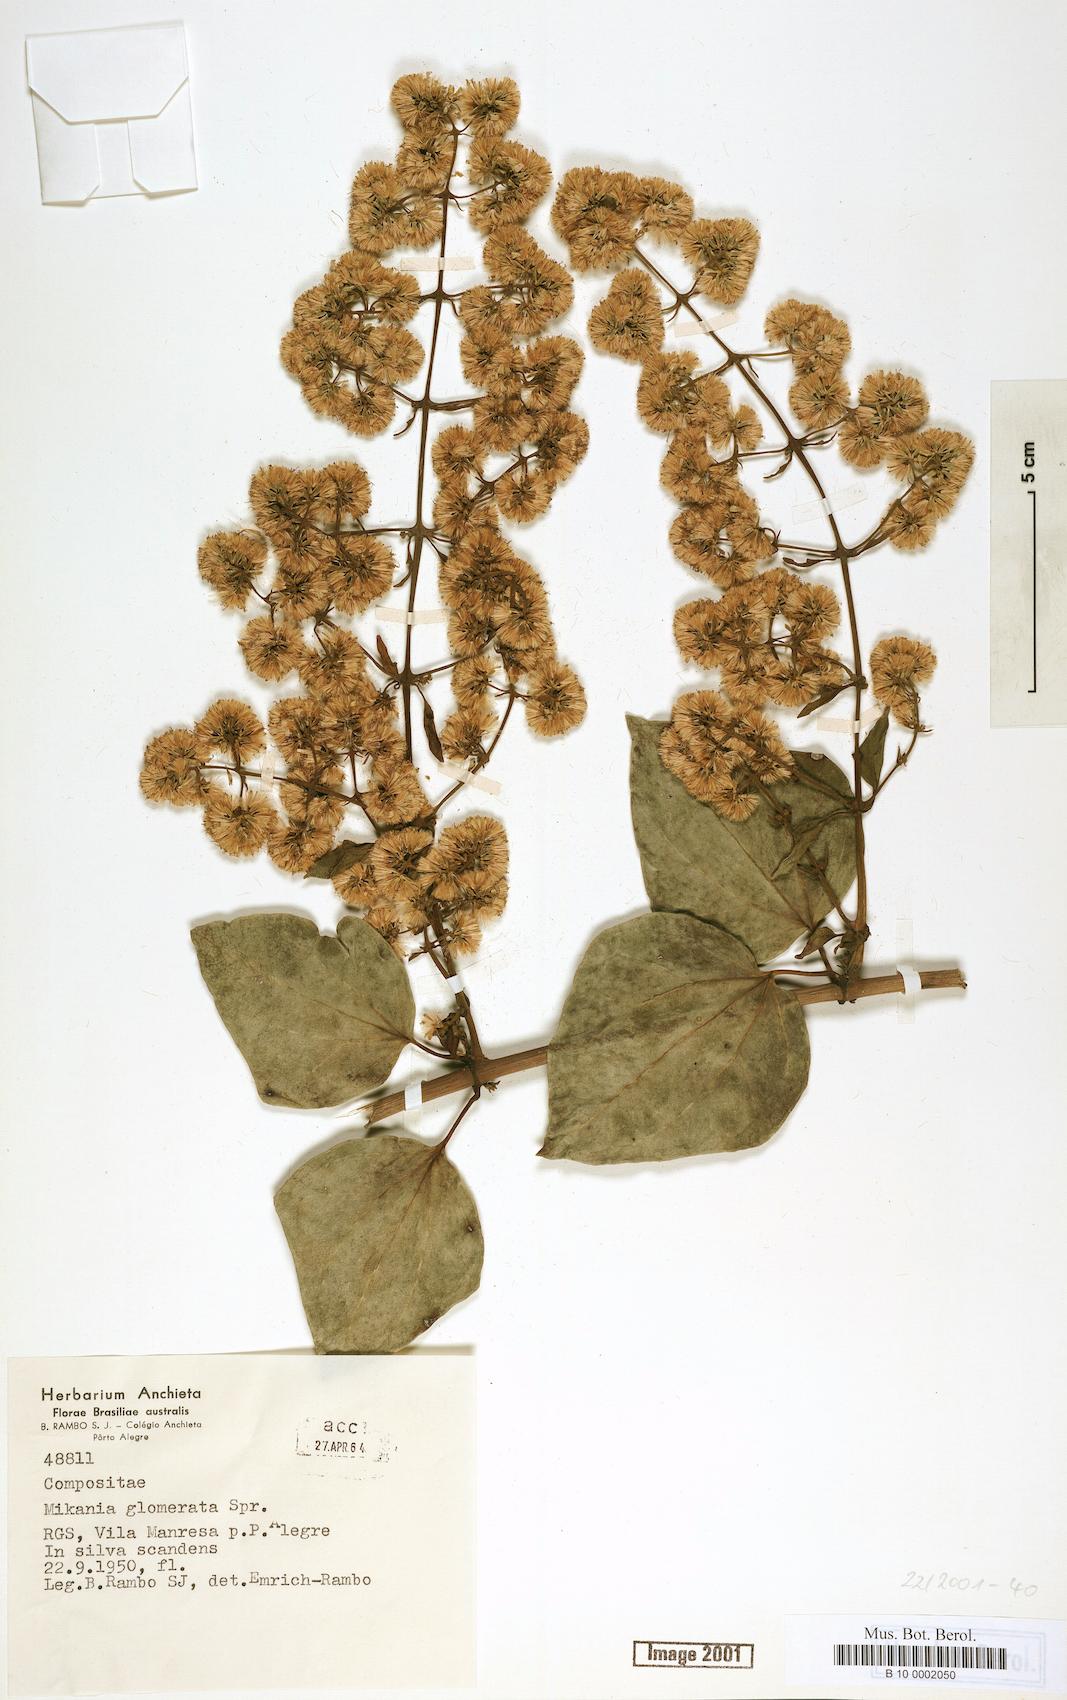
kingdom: Plantae
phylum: Tracheophyta
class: Magnoliopsida
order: Asterales
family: Asteraceae
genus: Mikania
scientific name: Mikania glomerata
